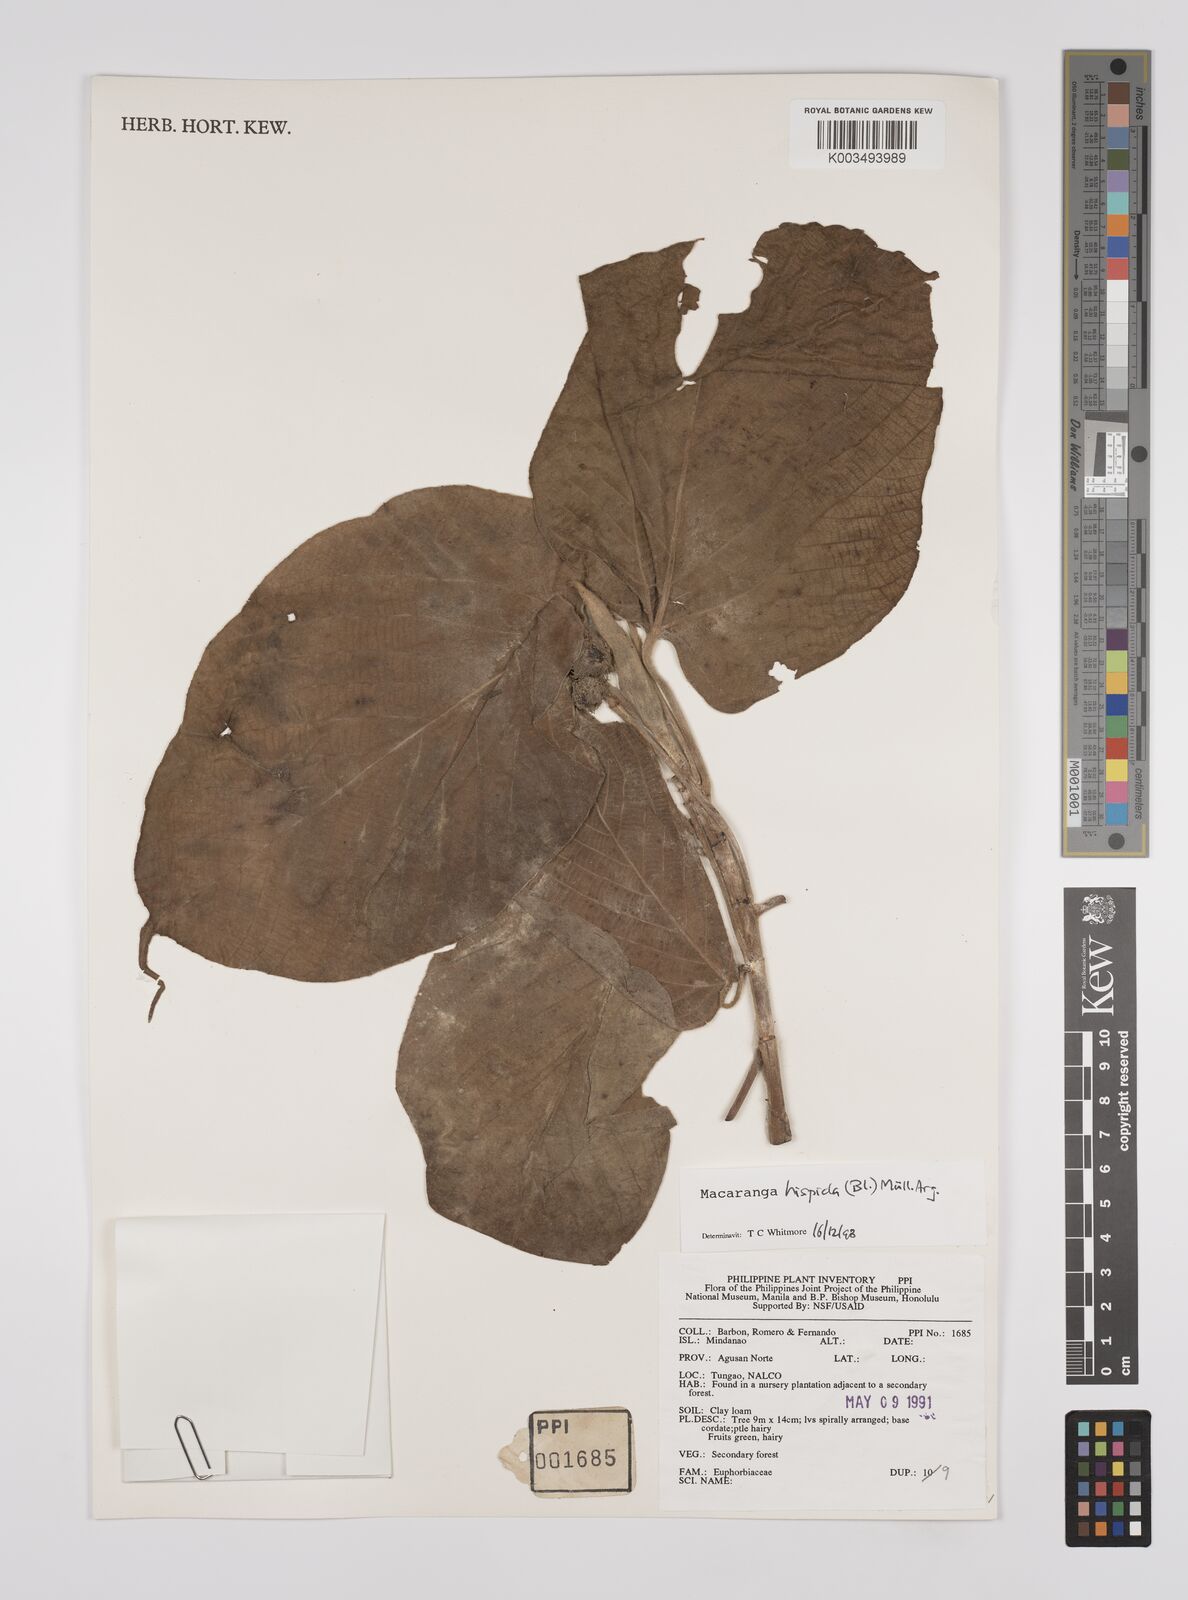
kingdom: Plantae
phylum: Tracheophyta
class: Magnoliopsida
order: Malpighiales
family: Euphorbiaceae
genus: Macaranga
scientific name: Macaranga hispida
